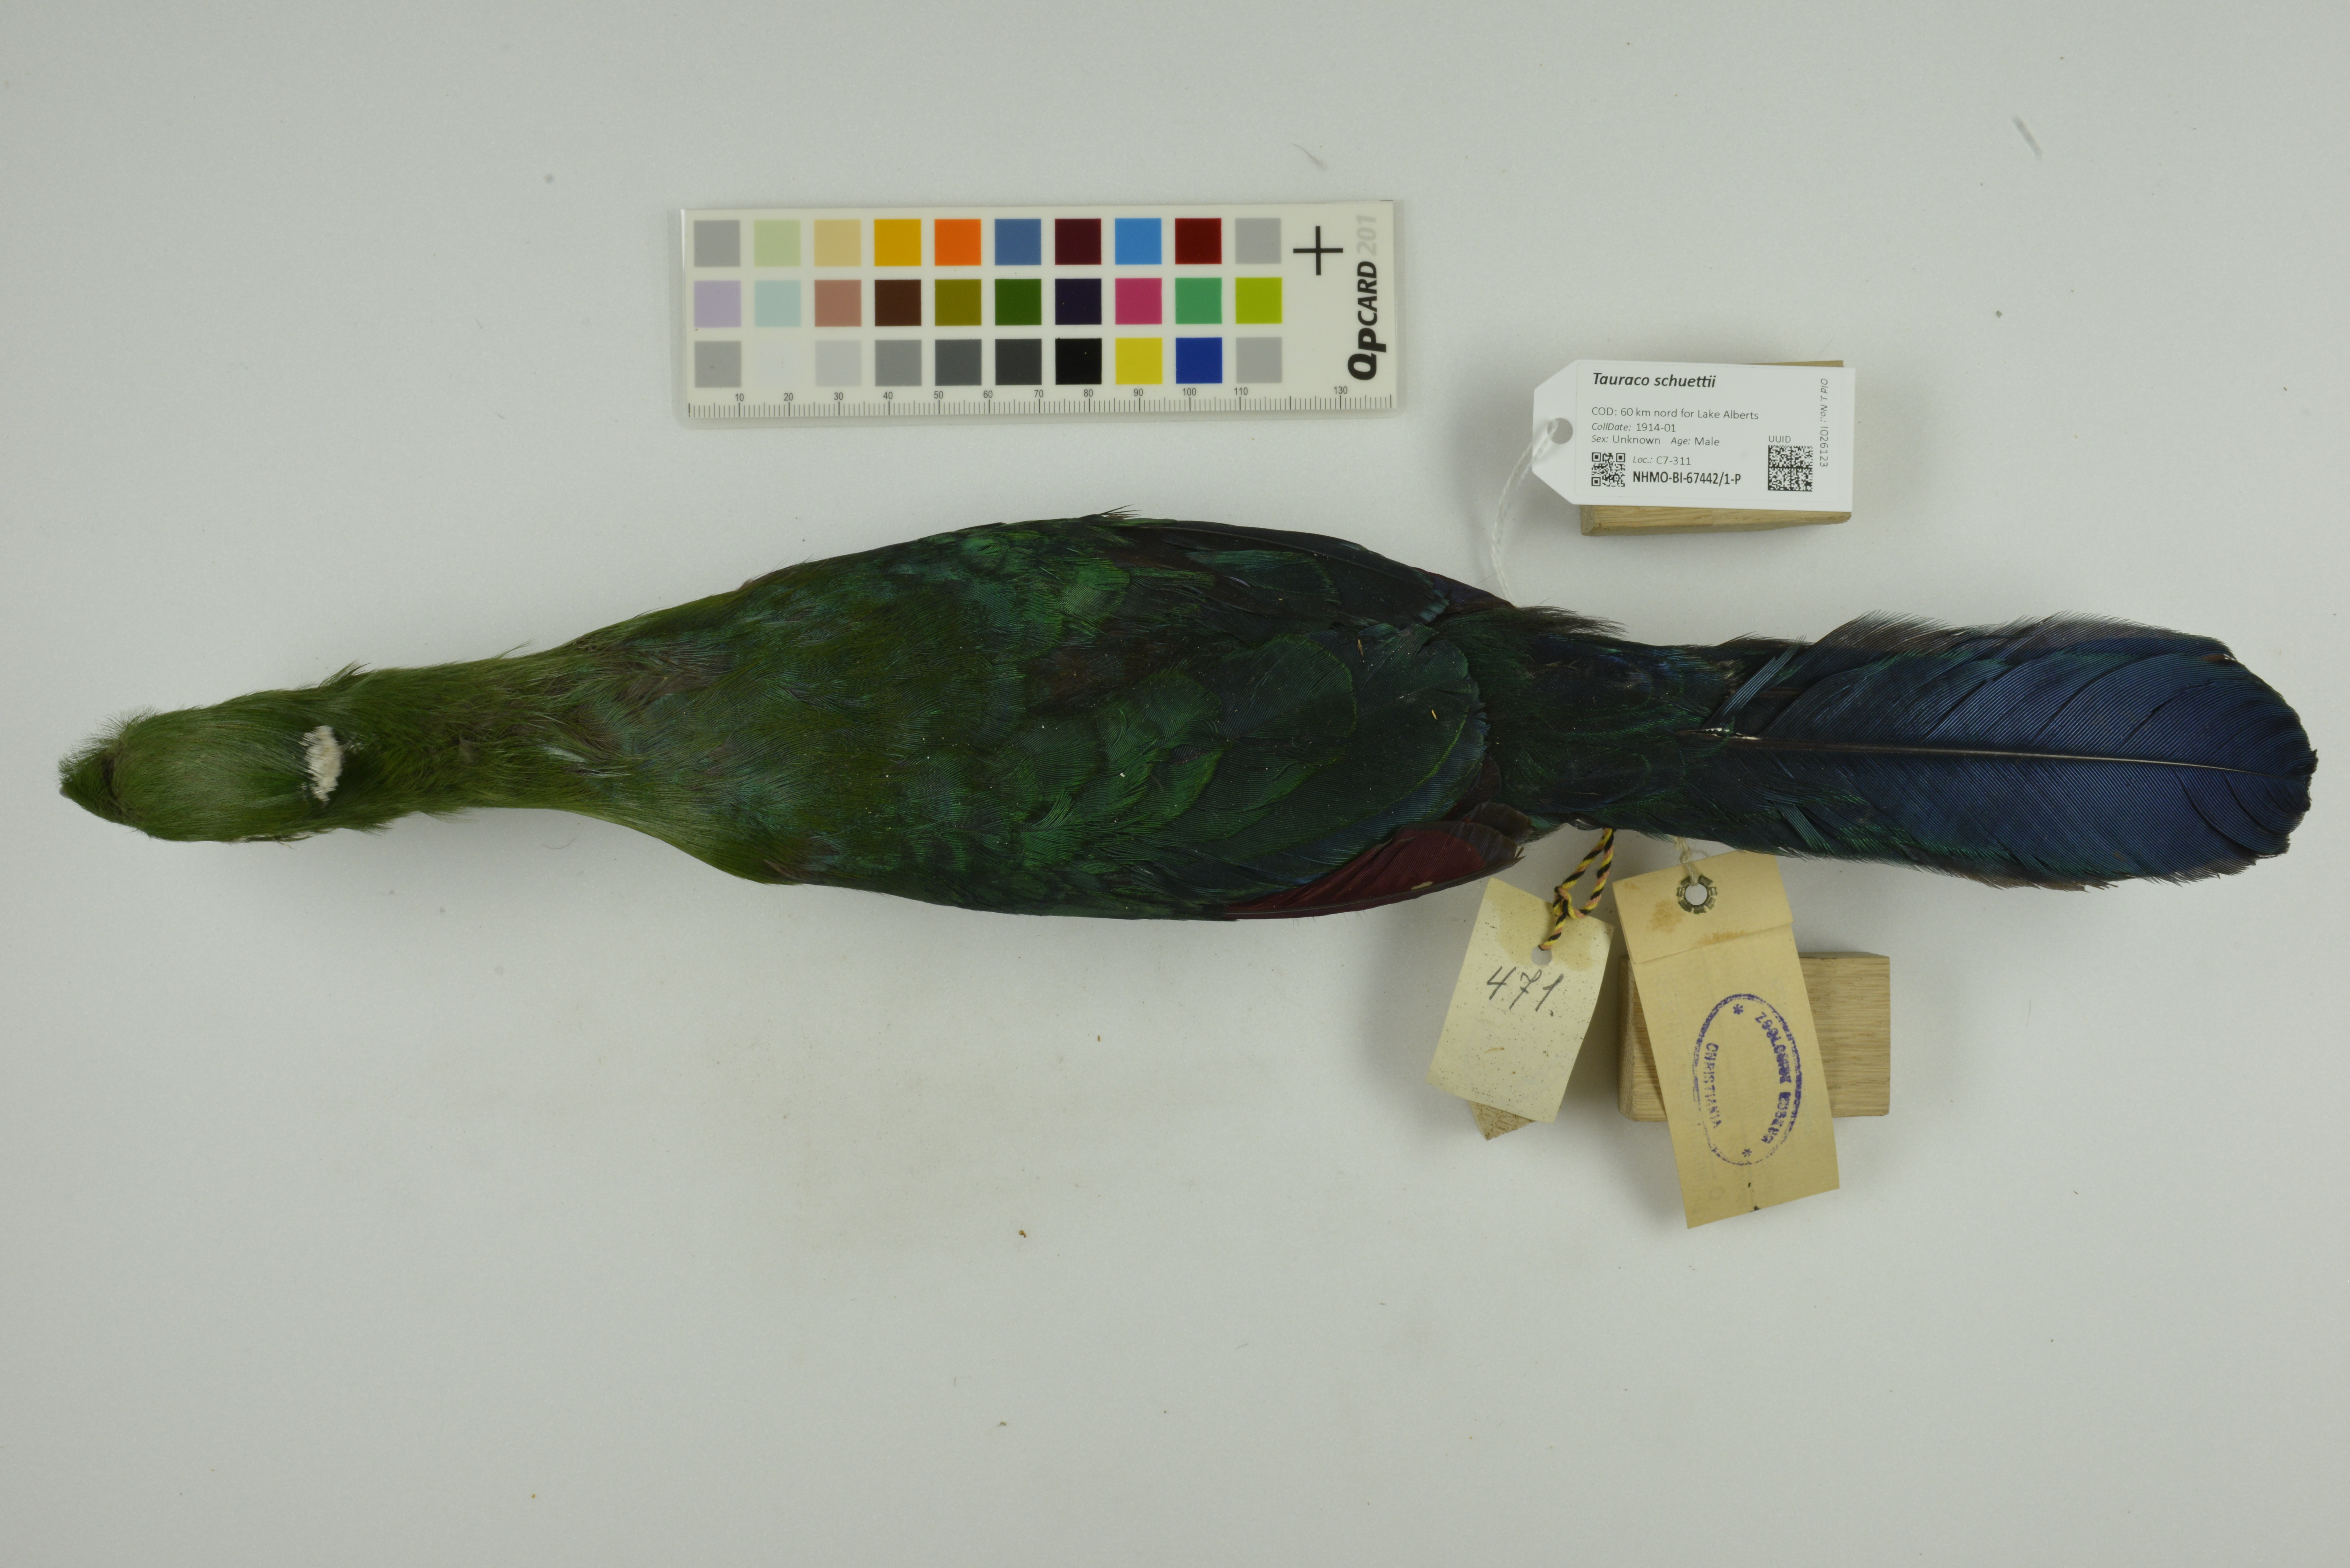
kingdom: Animalia
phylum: Chordata
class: Aves
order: Musophagiformes
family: Musophagidae
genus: Tauraco
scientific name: Tauraco schuettii
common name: Black-billed turaco
